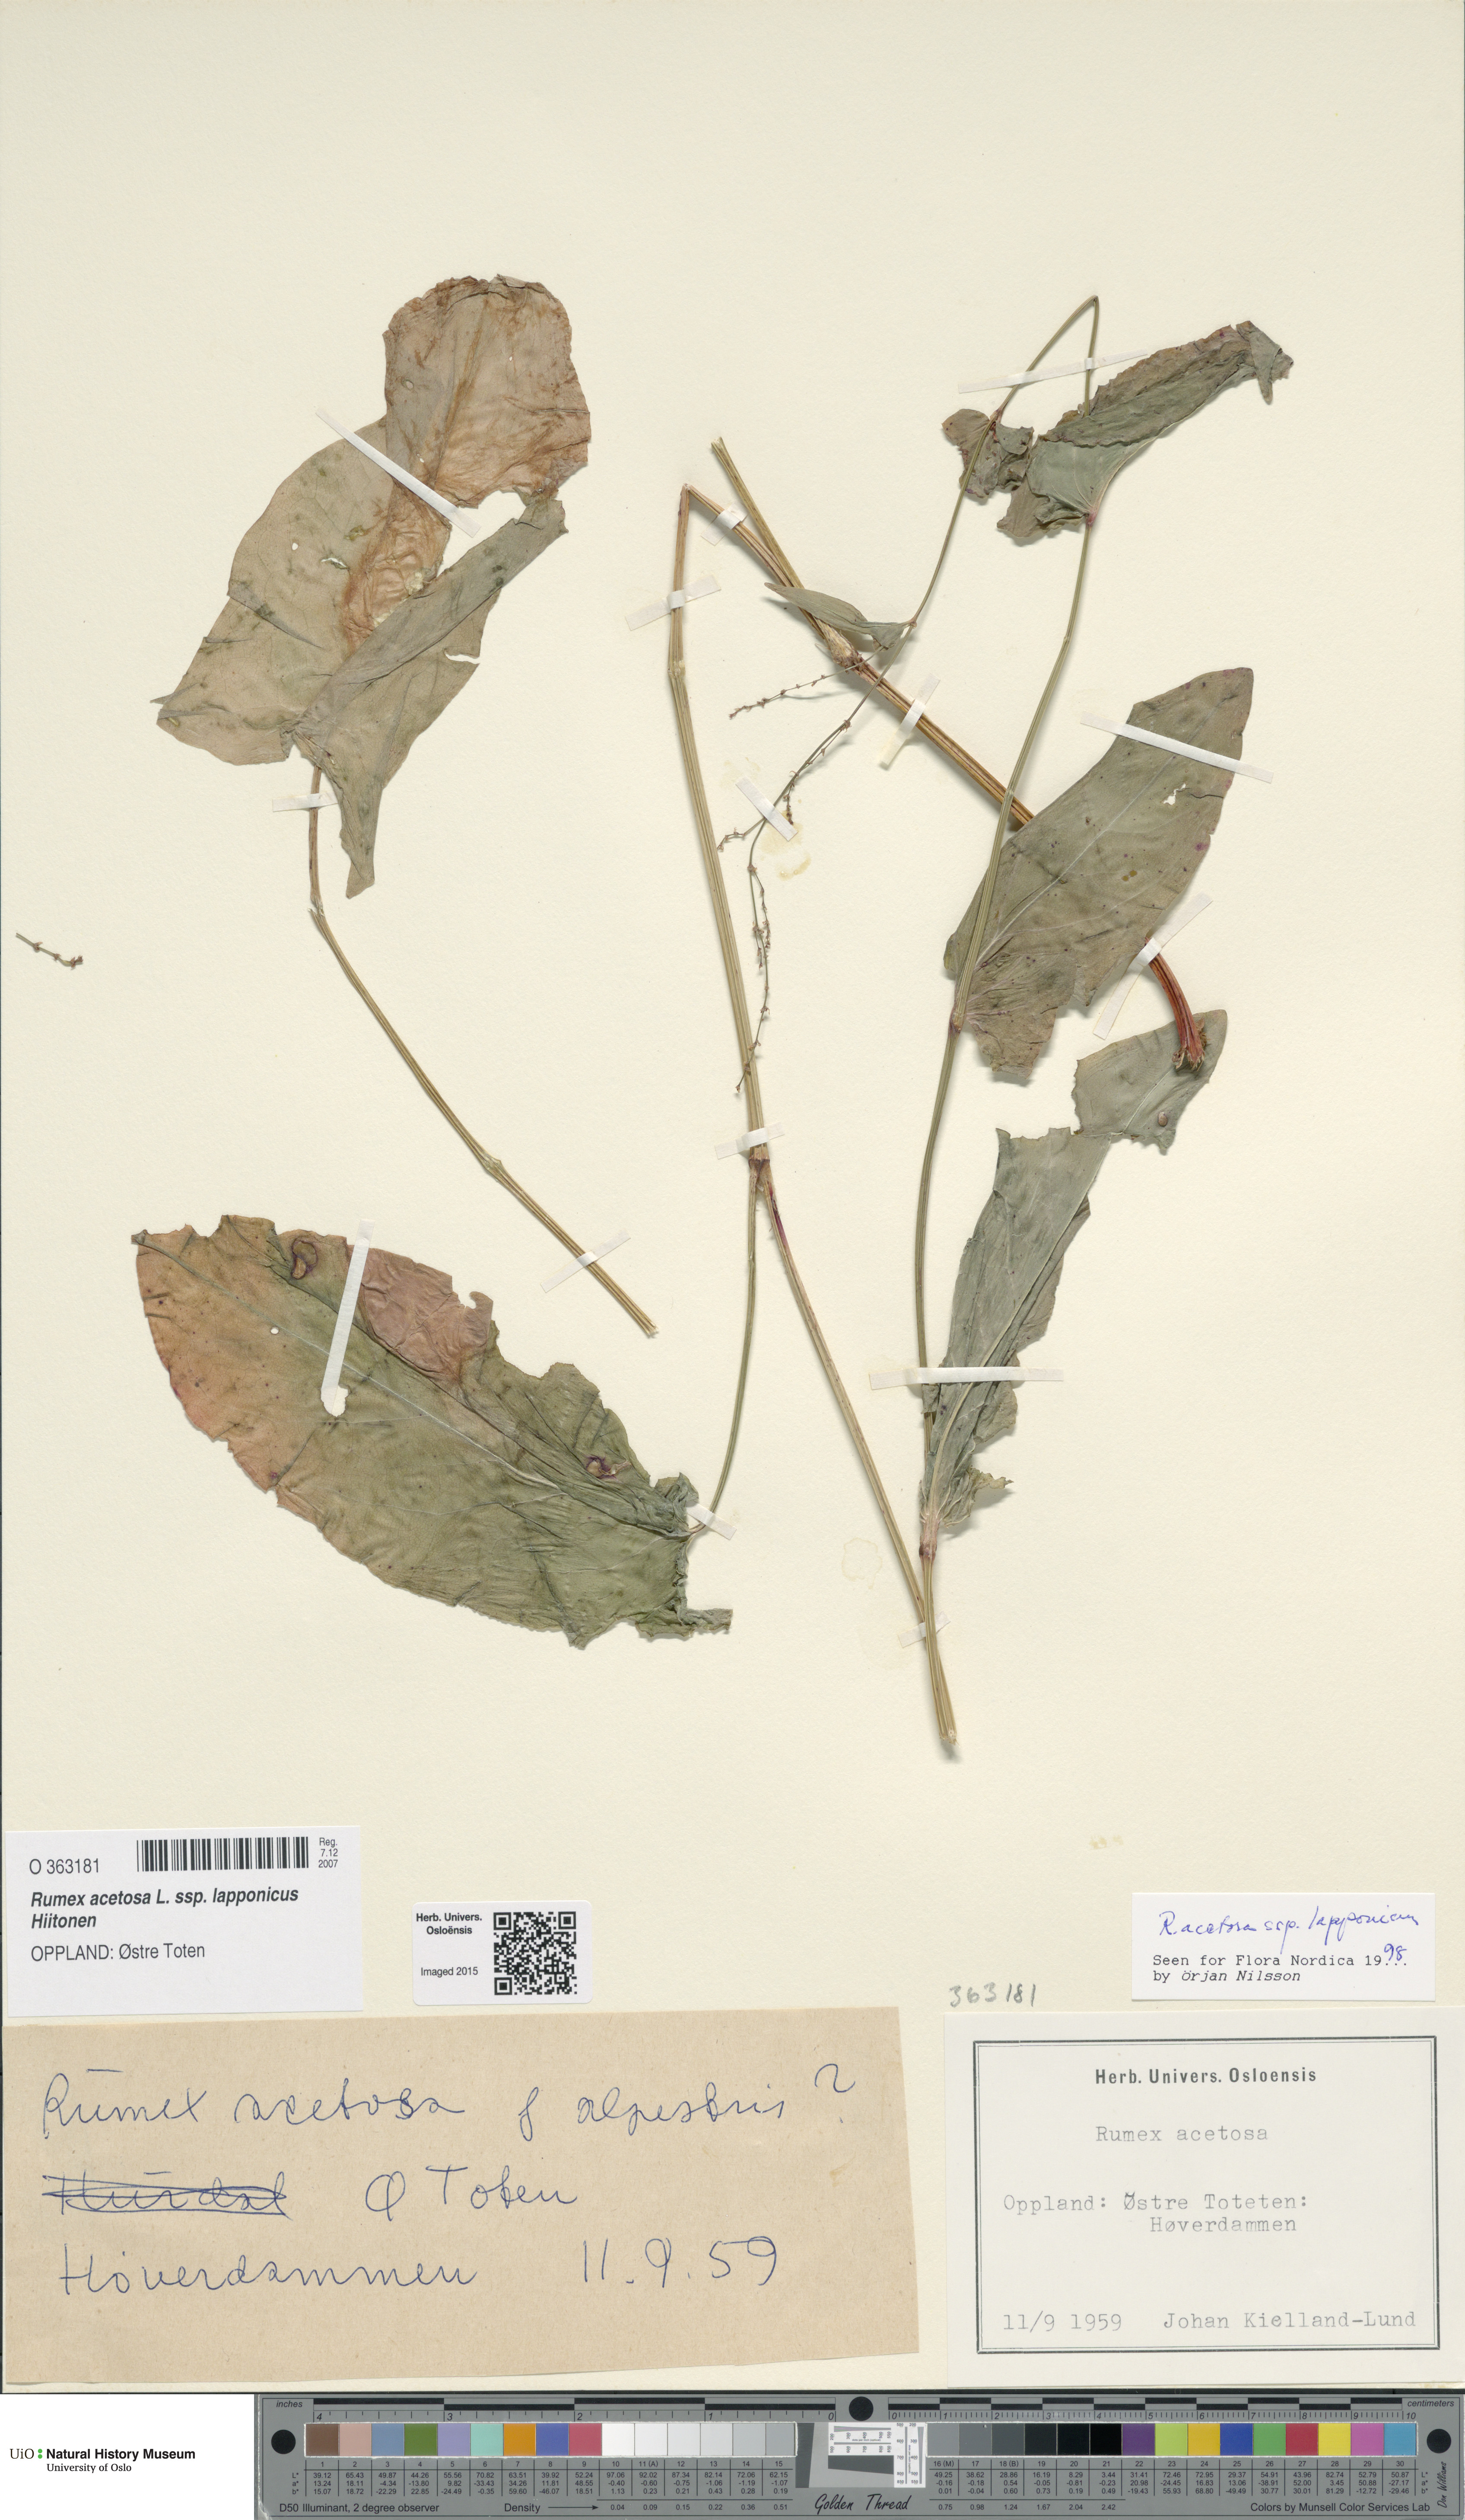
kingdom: Plantae
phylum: Tracheophyta
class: Magnoliopsida
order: Caryophyllales
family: Polygonaceae
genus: Rumex
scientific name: Rumex lapponicus
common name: Lapland mountain sorrel
